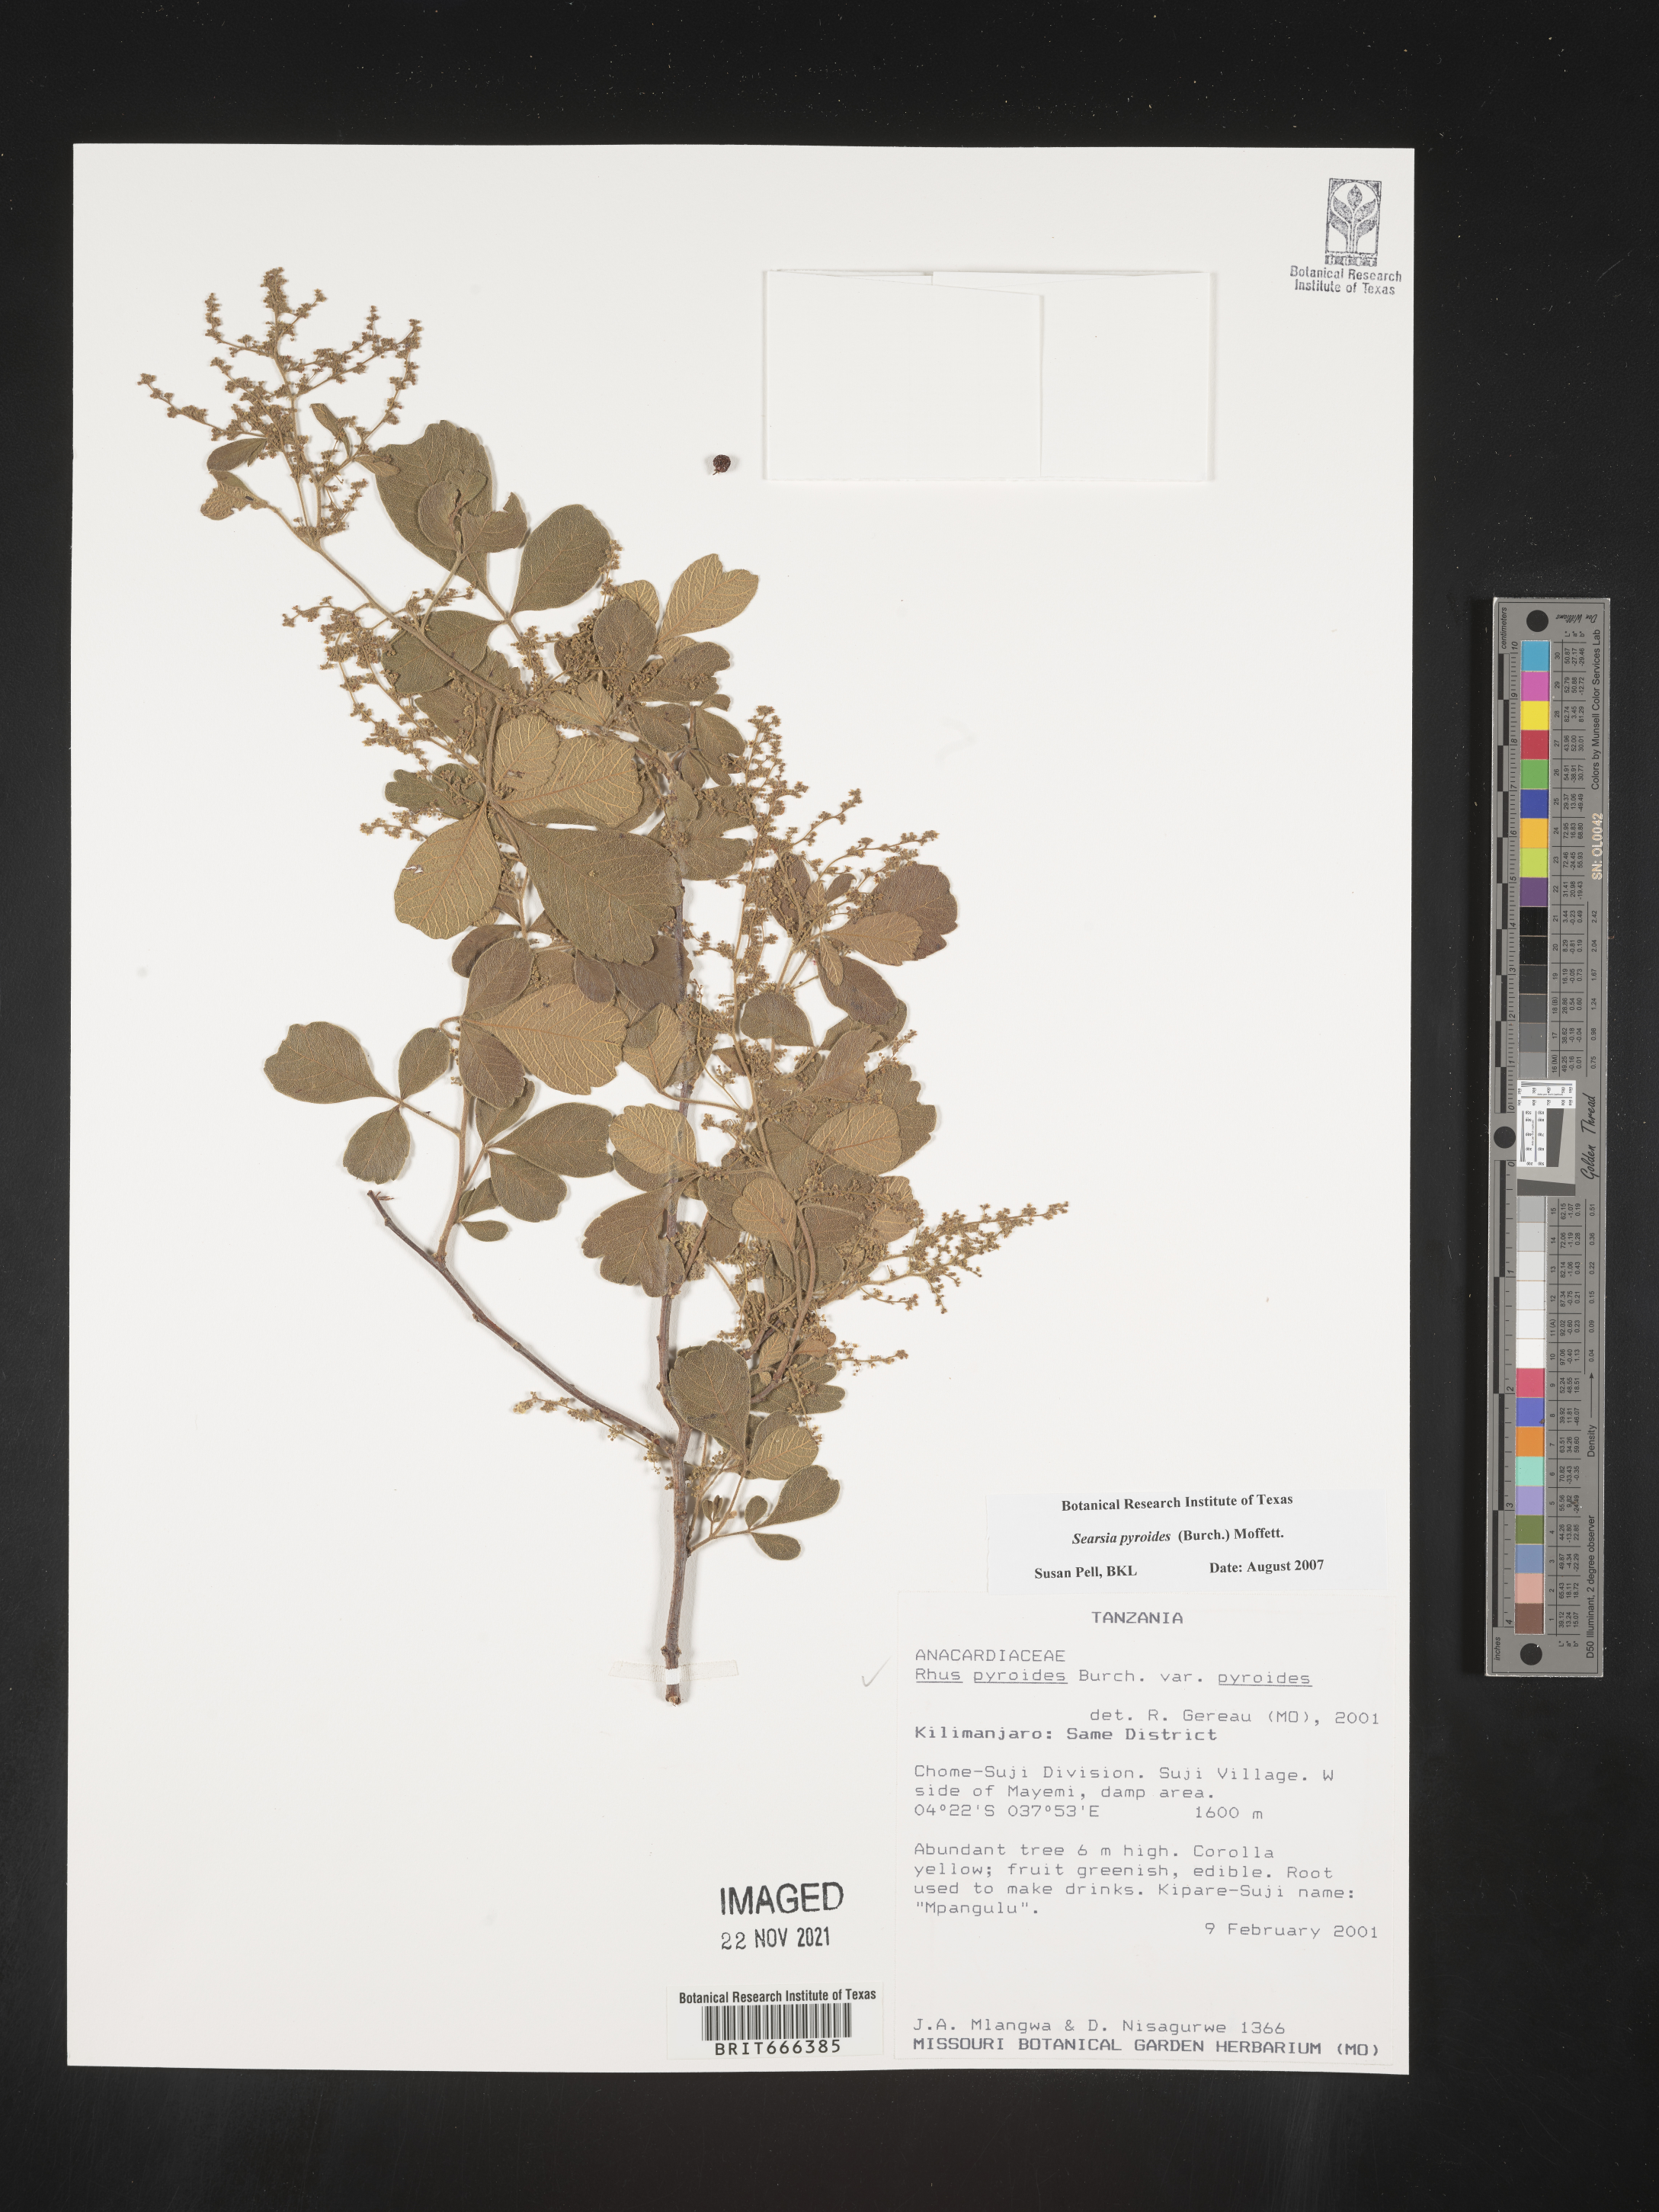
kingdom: Plantae
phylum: Tracheophyta
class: Magnoliopsida
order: Sapindales
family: Anacardiaceae
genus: Searsia
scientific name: Searsia pyroides
